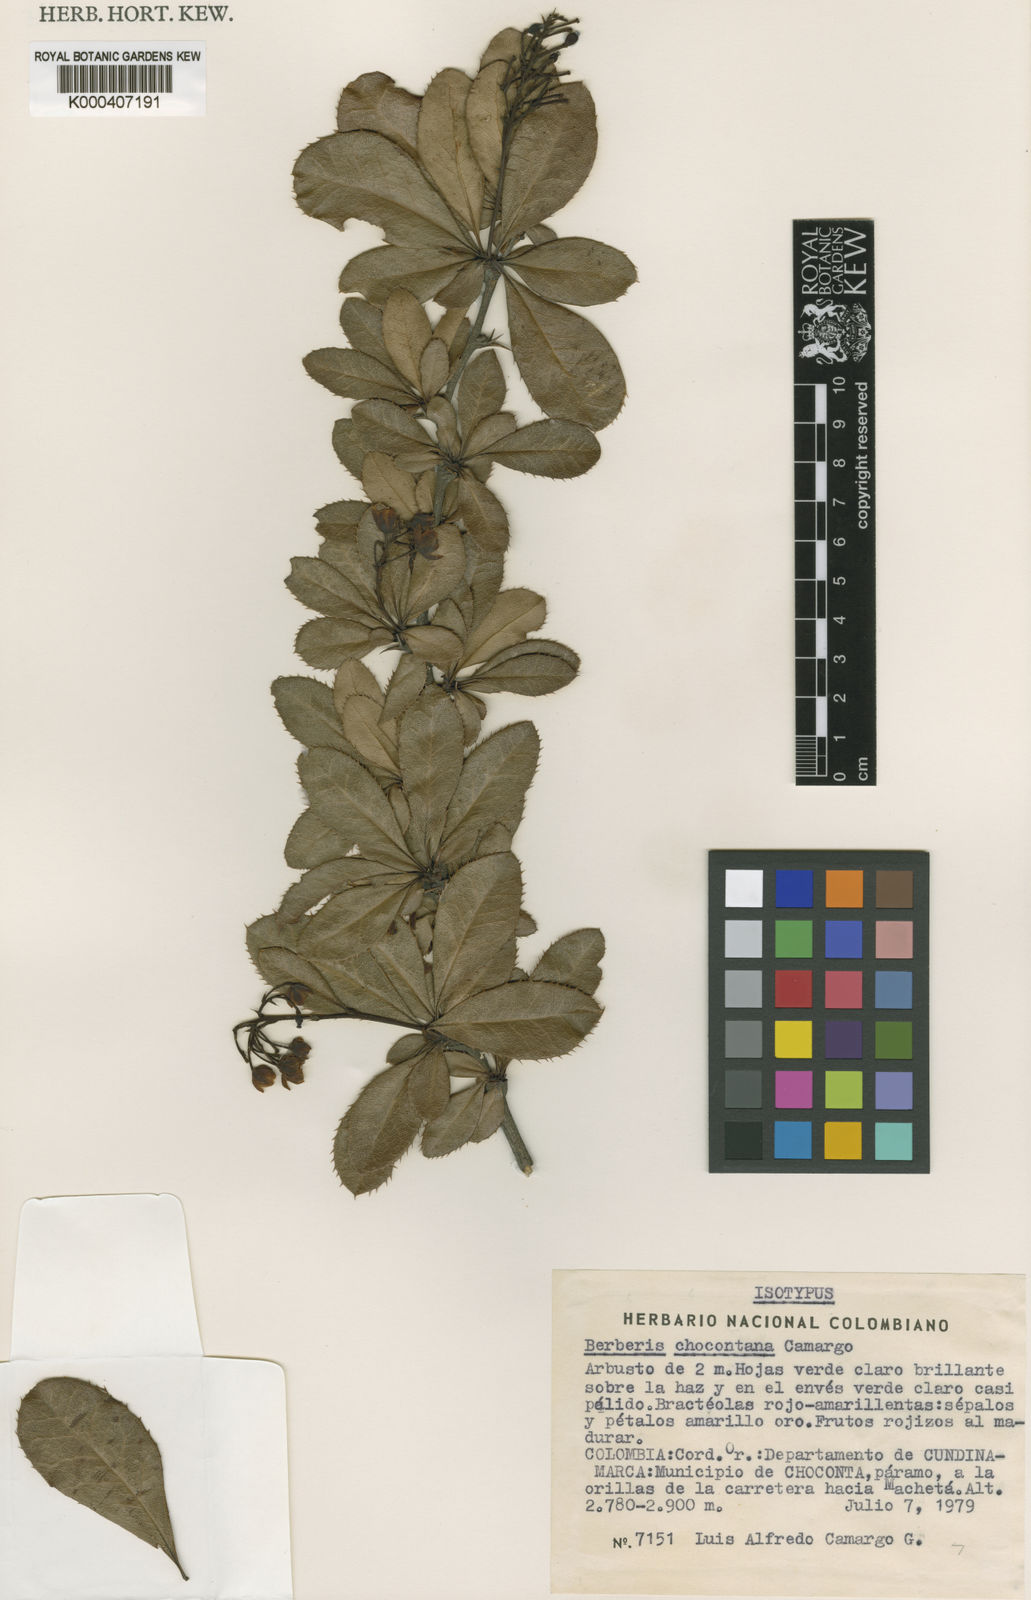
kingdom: Plantae
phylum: Tracheophyta
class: Magnoliopsida
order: Ranunculales
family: Berberidaceae
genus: Berberis
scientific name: Berberis quinduensis
